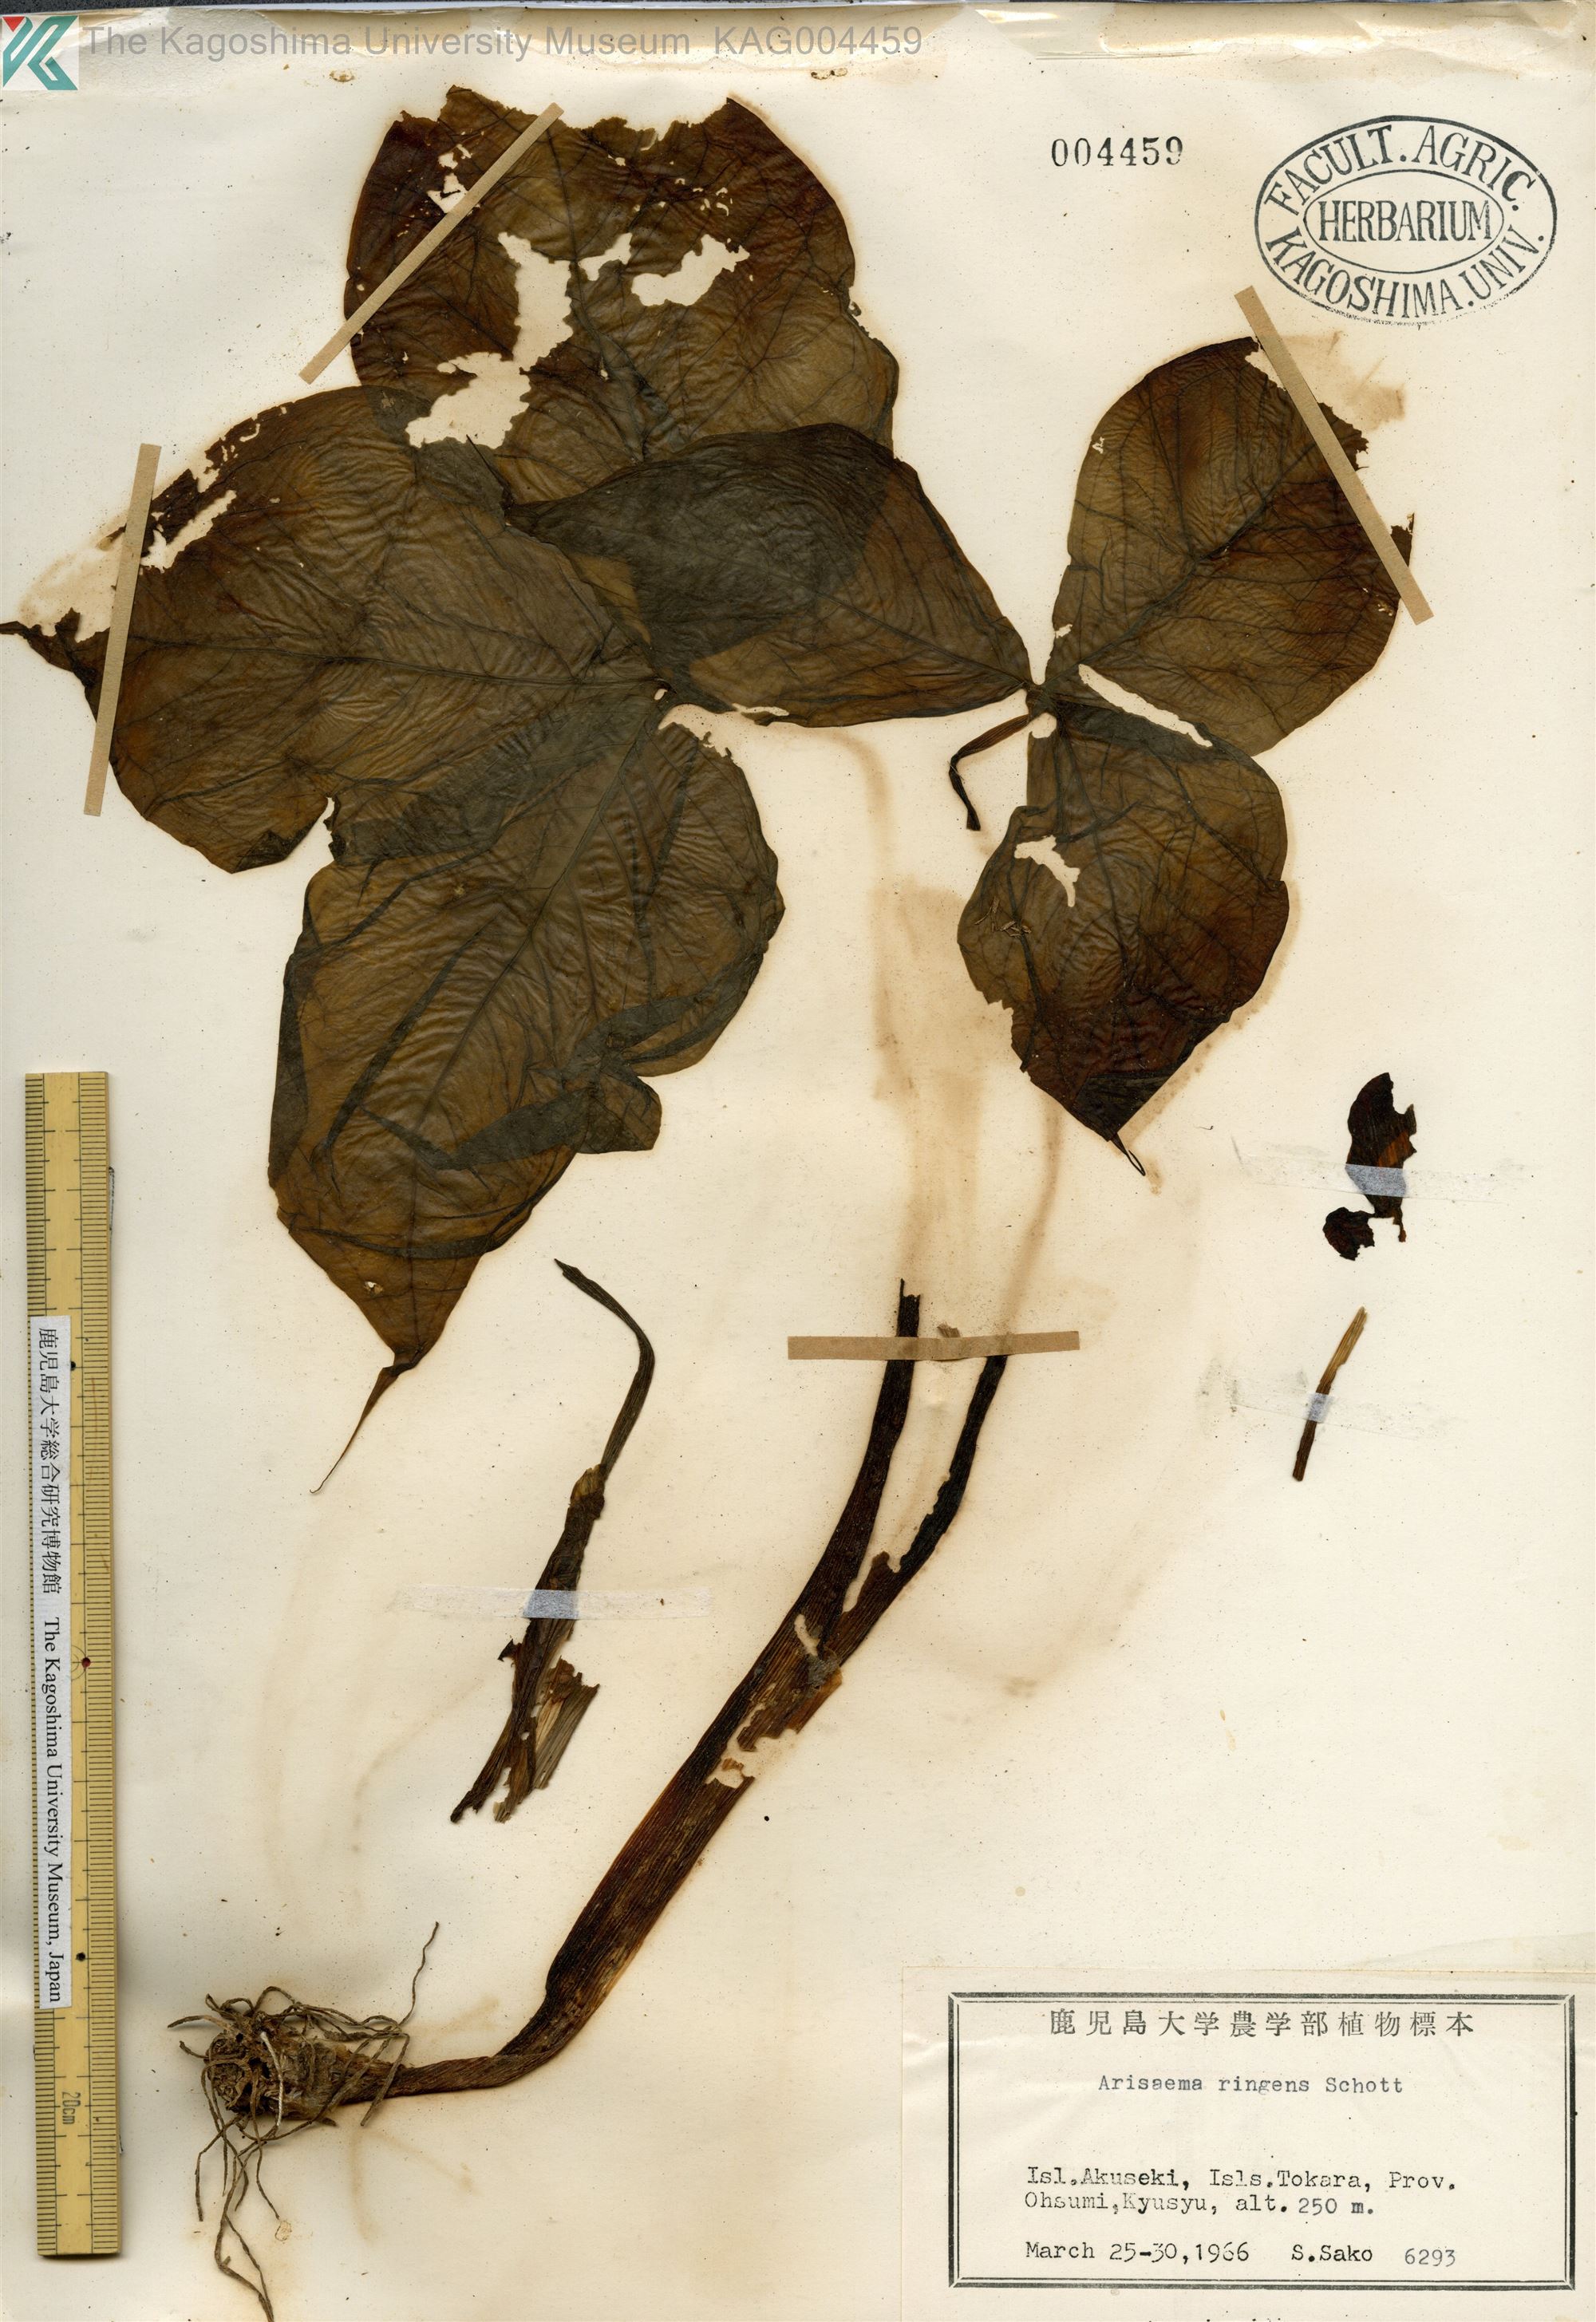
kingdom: Plantae
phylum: Tracheophyta
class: Liliopsida
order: Alismatales
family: Araceae
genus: Arisaema
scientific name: Arisaema ringens
